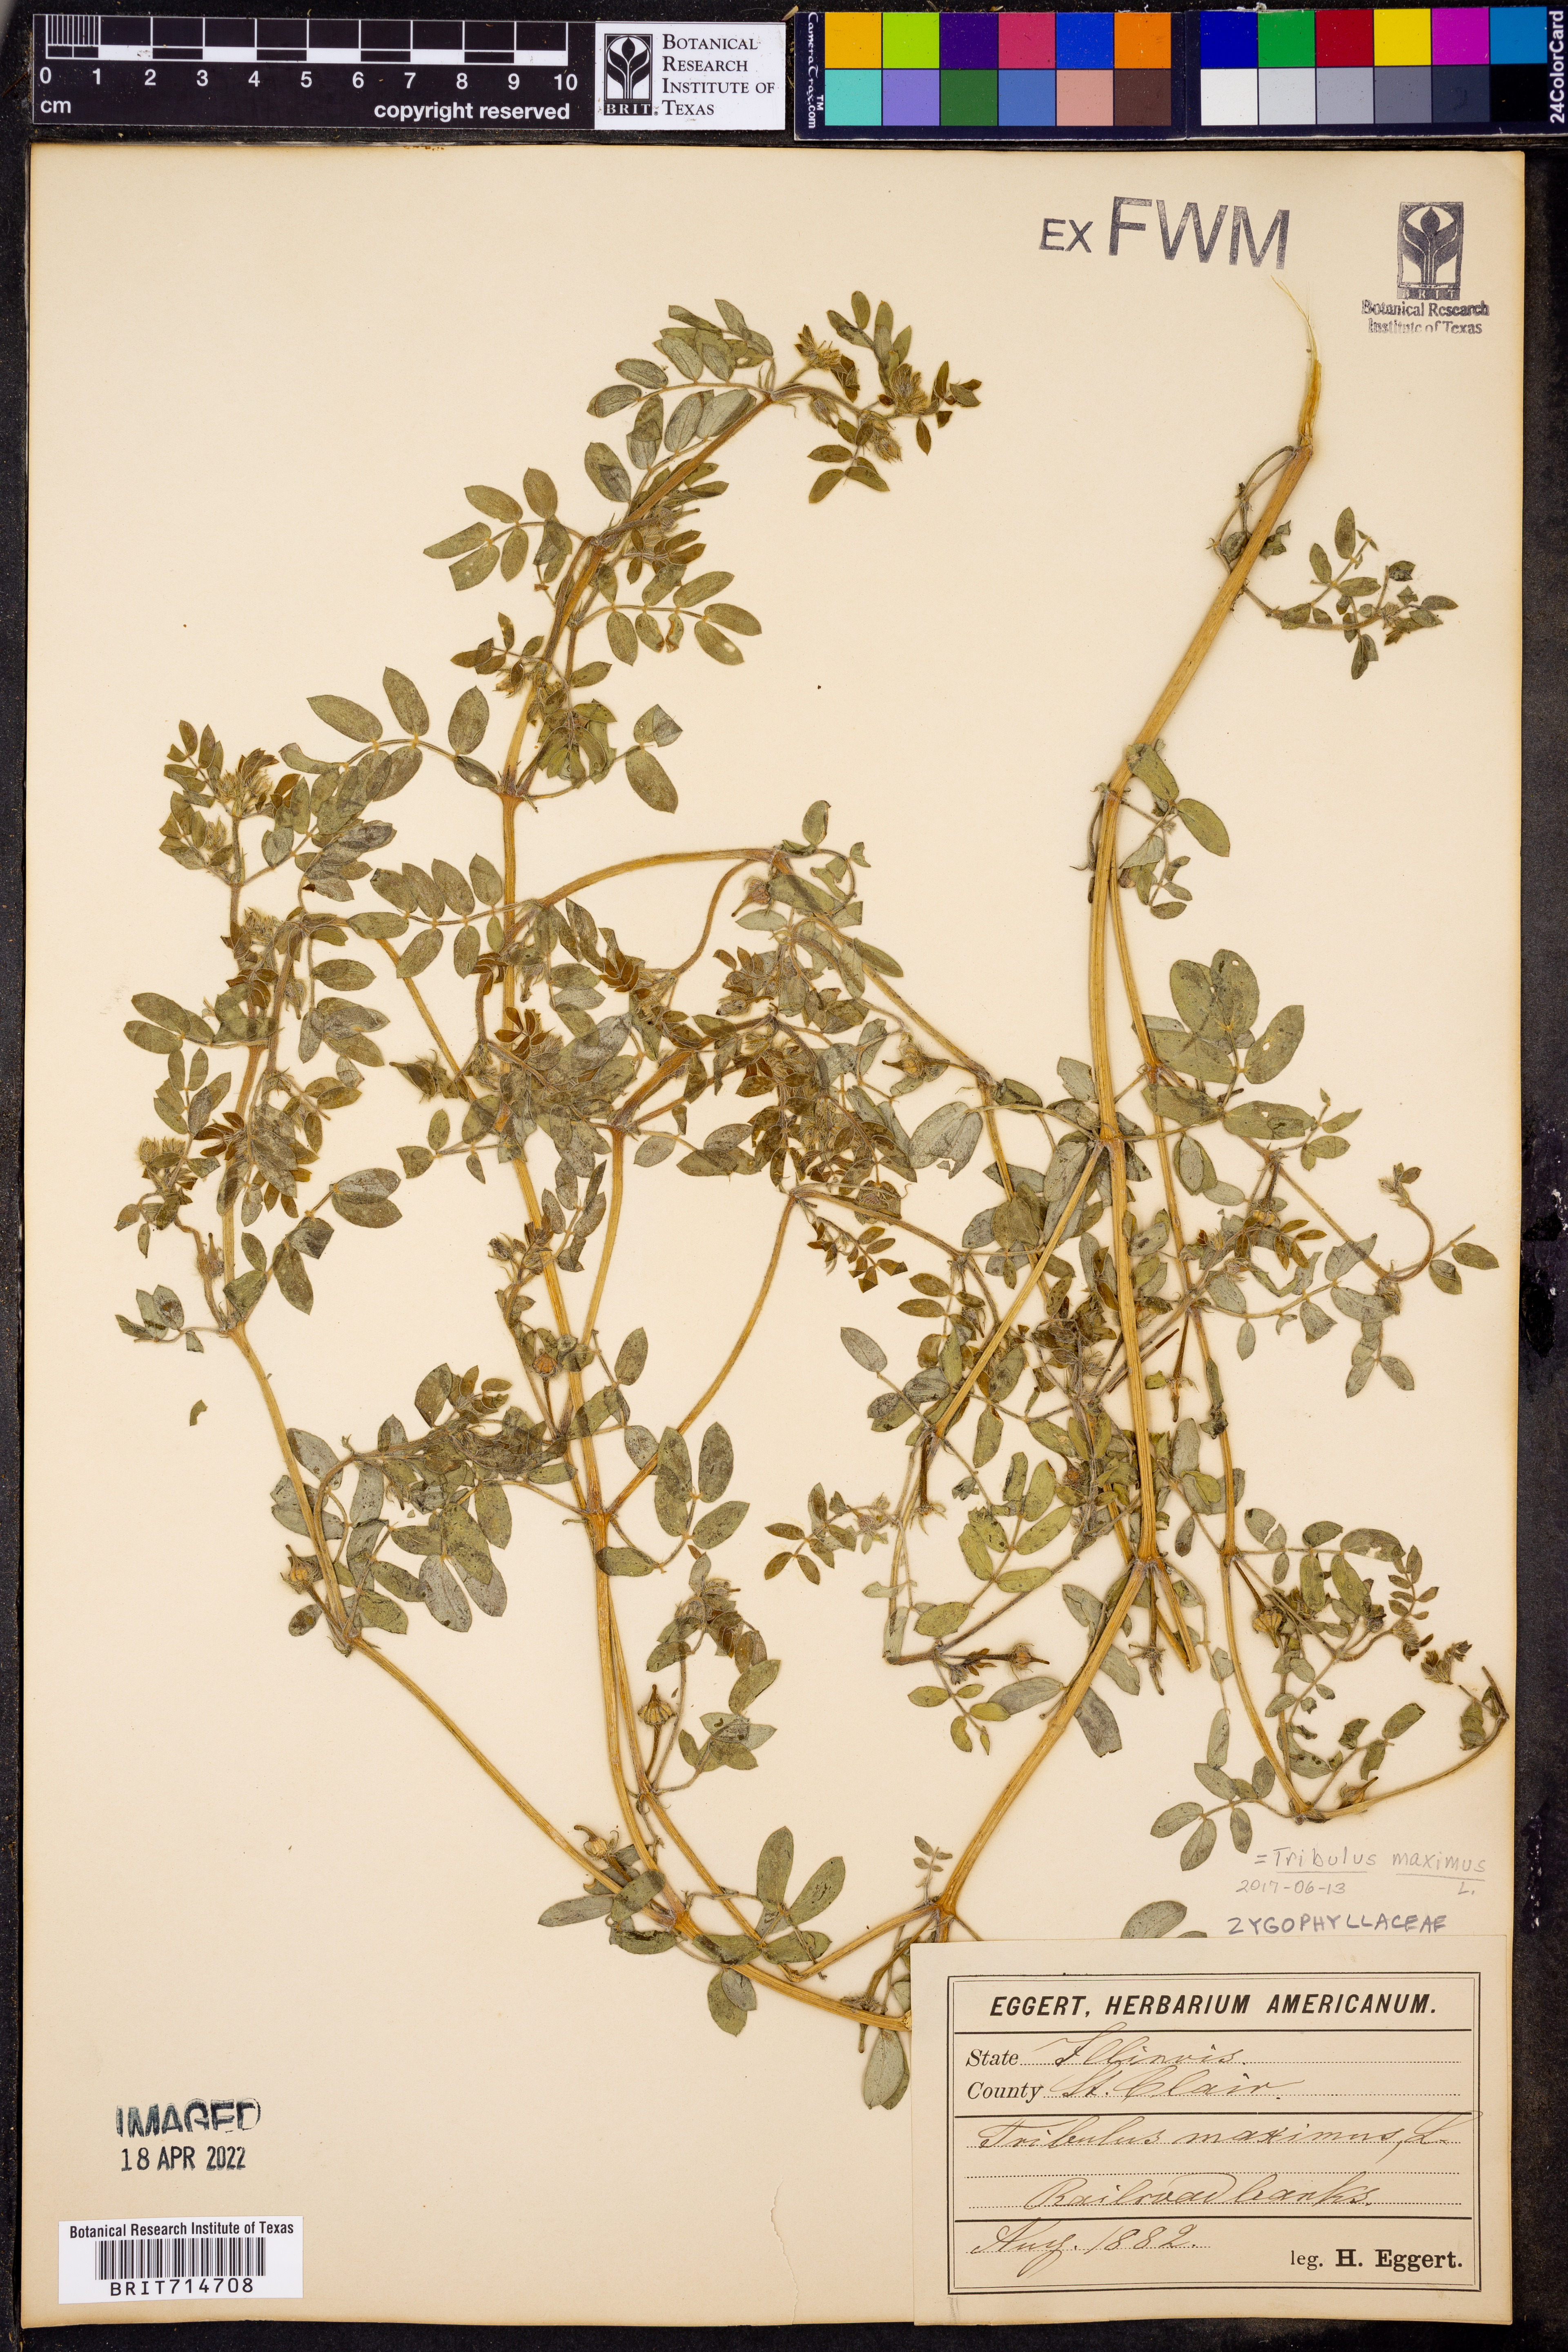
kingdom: Plantae
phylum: Tracheophyta
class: Magnoliopsida
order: Zygophyllales
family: Zygophyllaceae
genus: Kallstroemia
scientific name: Kallstroemia maxima
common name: Big caltropa
